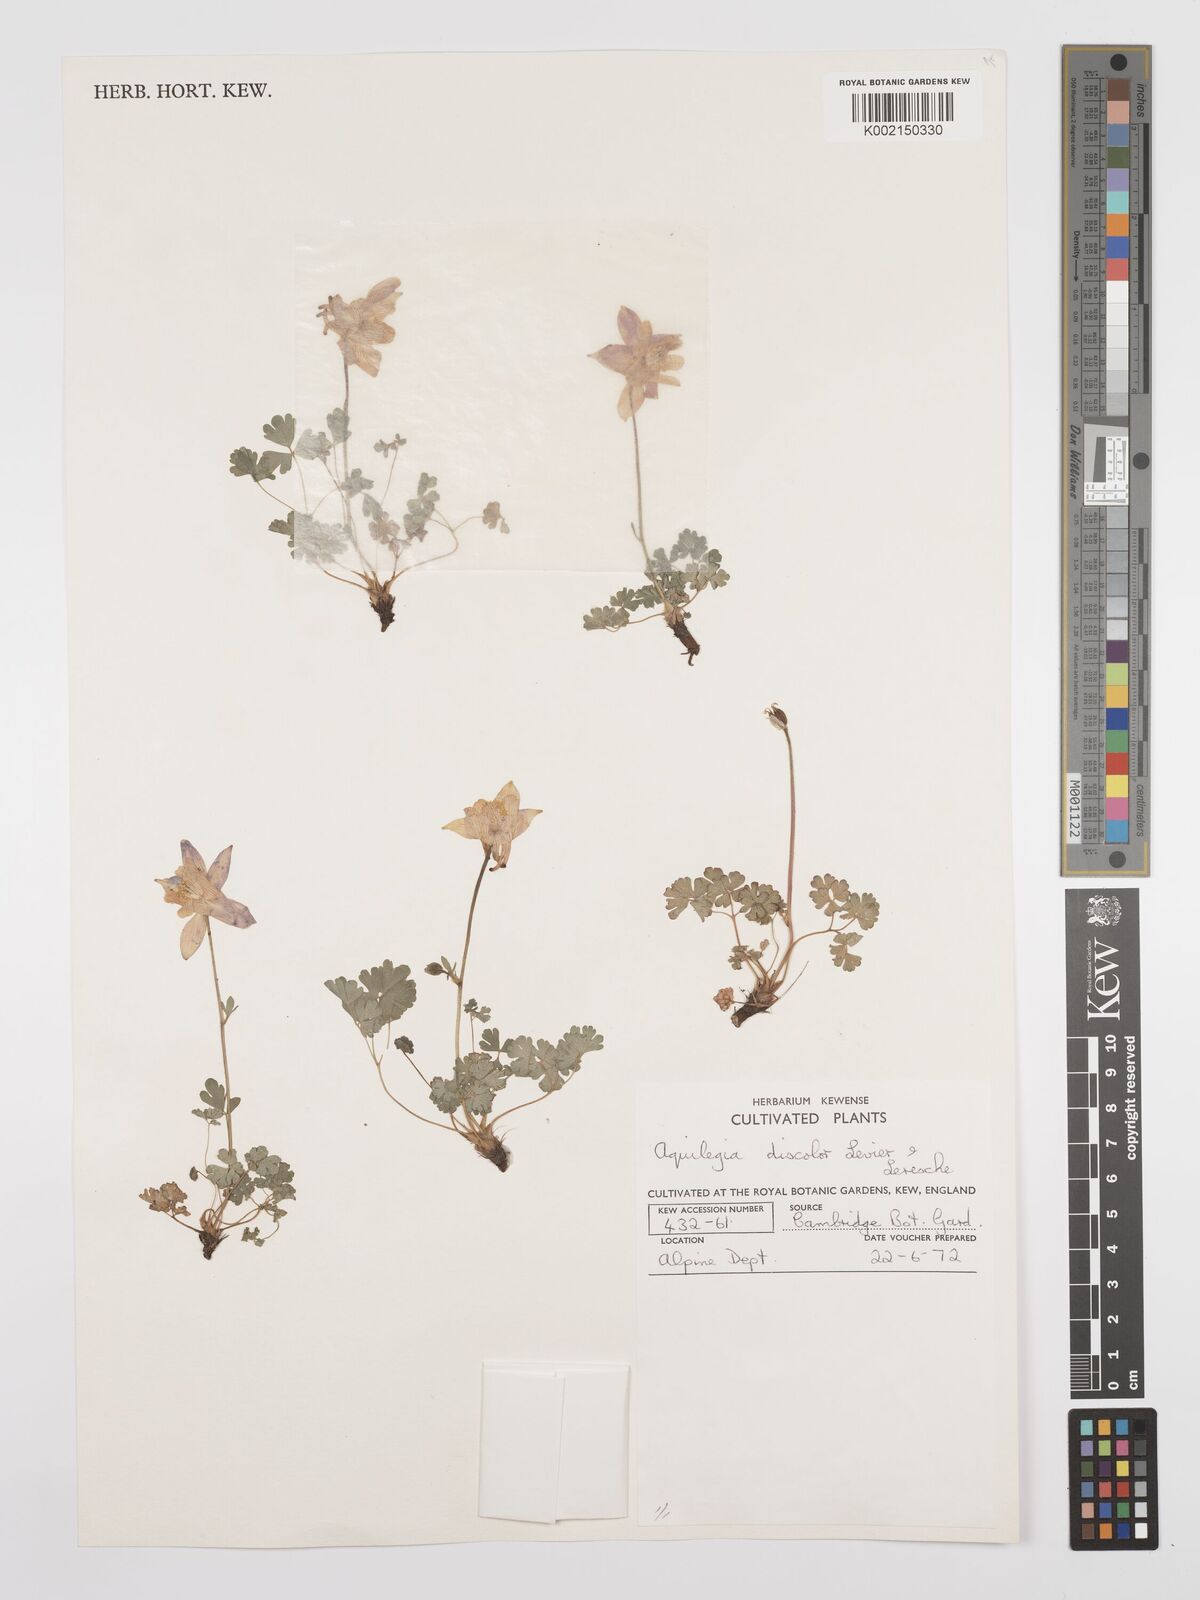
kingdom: Plantae
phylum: Tracheophyta
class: Magnoliopsida
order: Ranunculales
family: Ranunculaceae
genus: Aquilegia
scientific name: Aquilegia glandulosa
